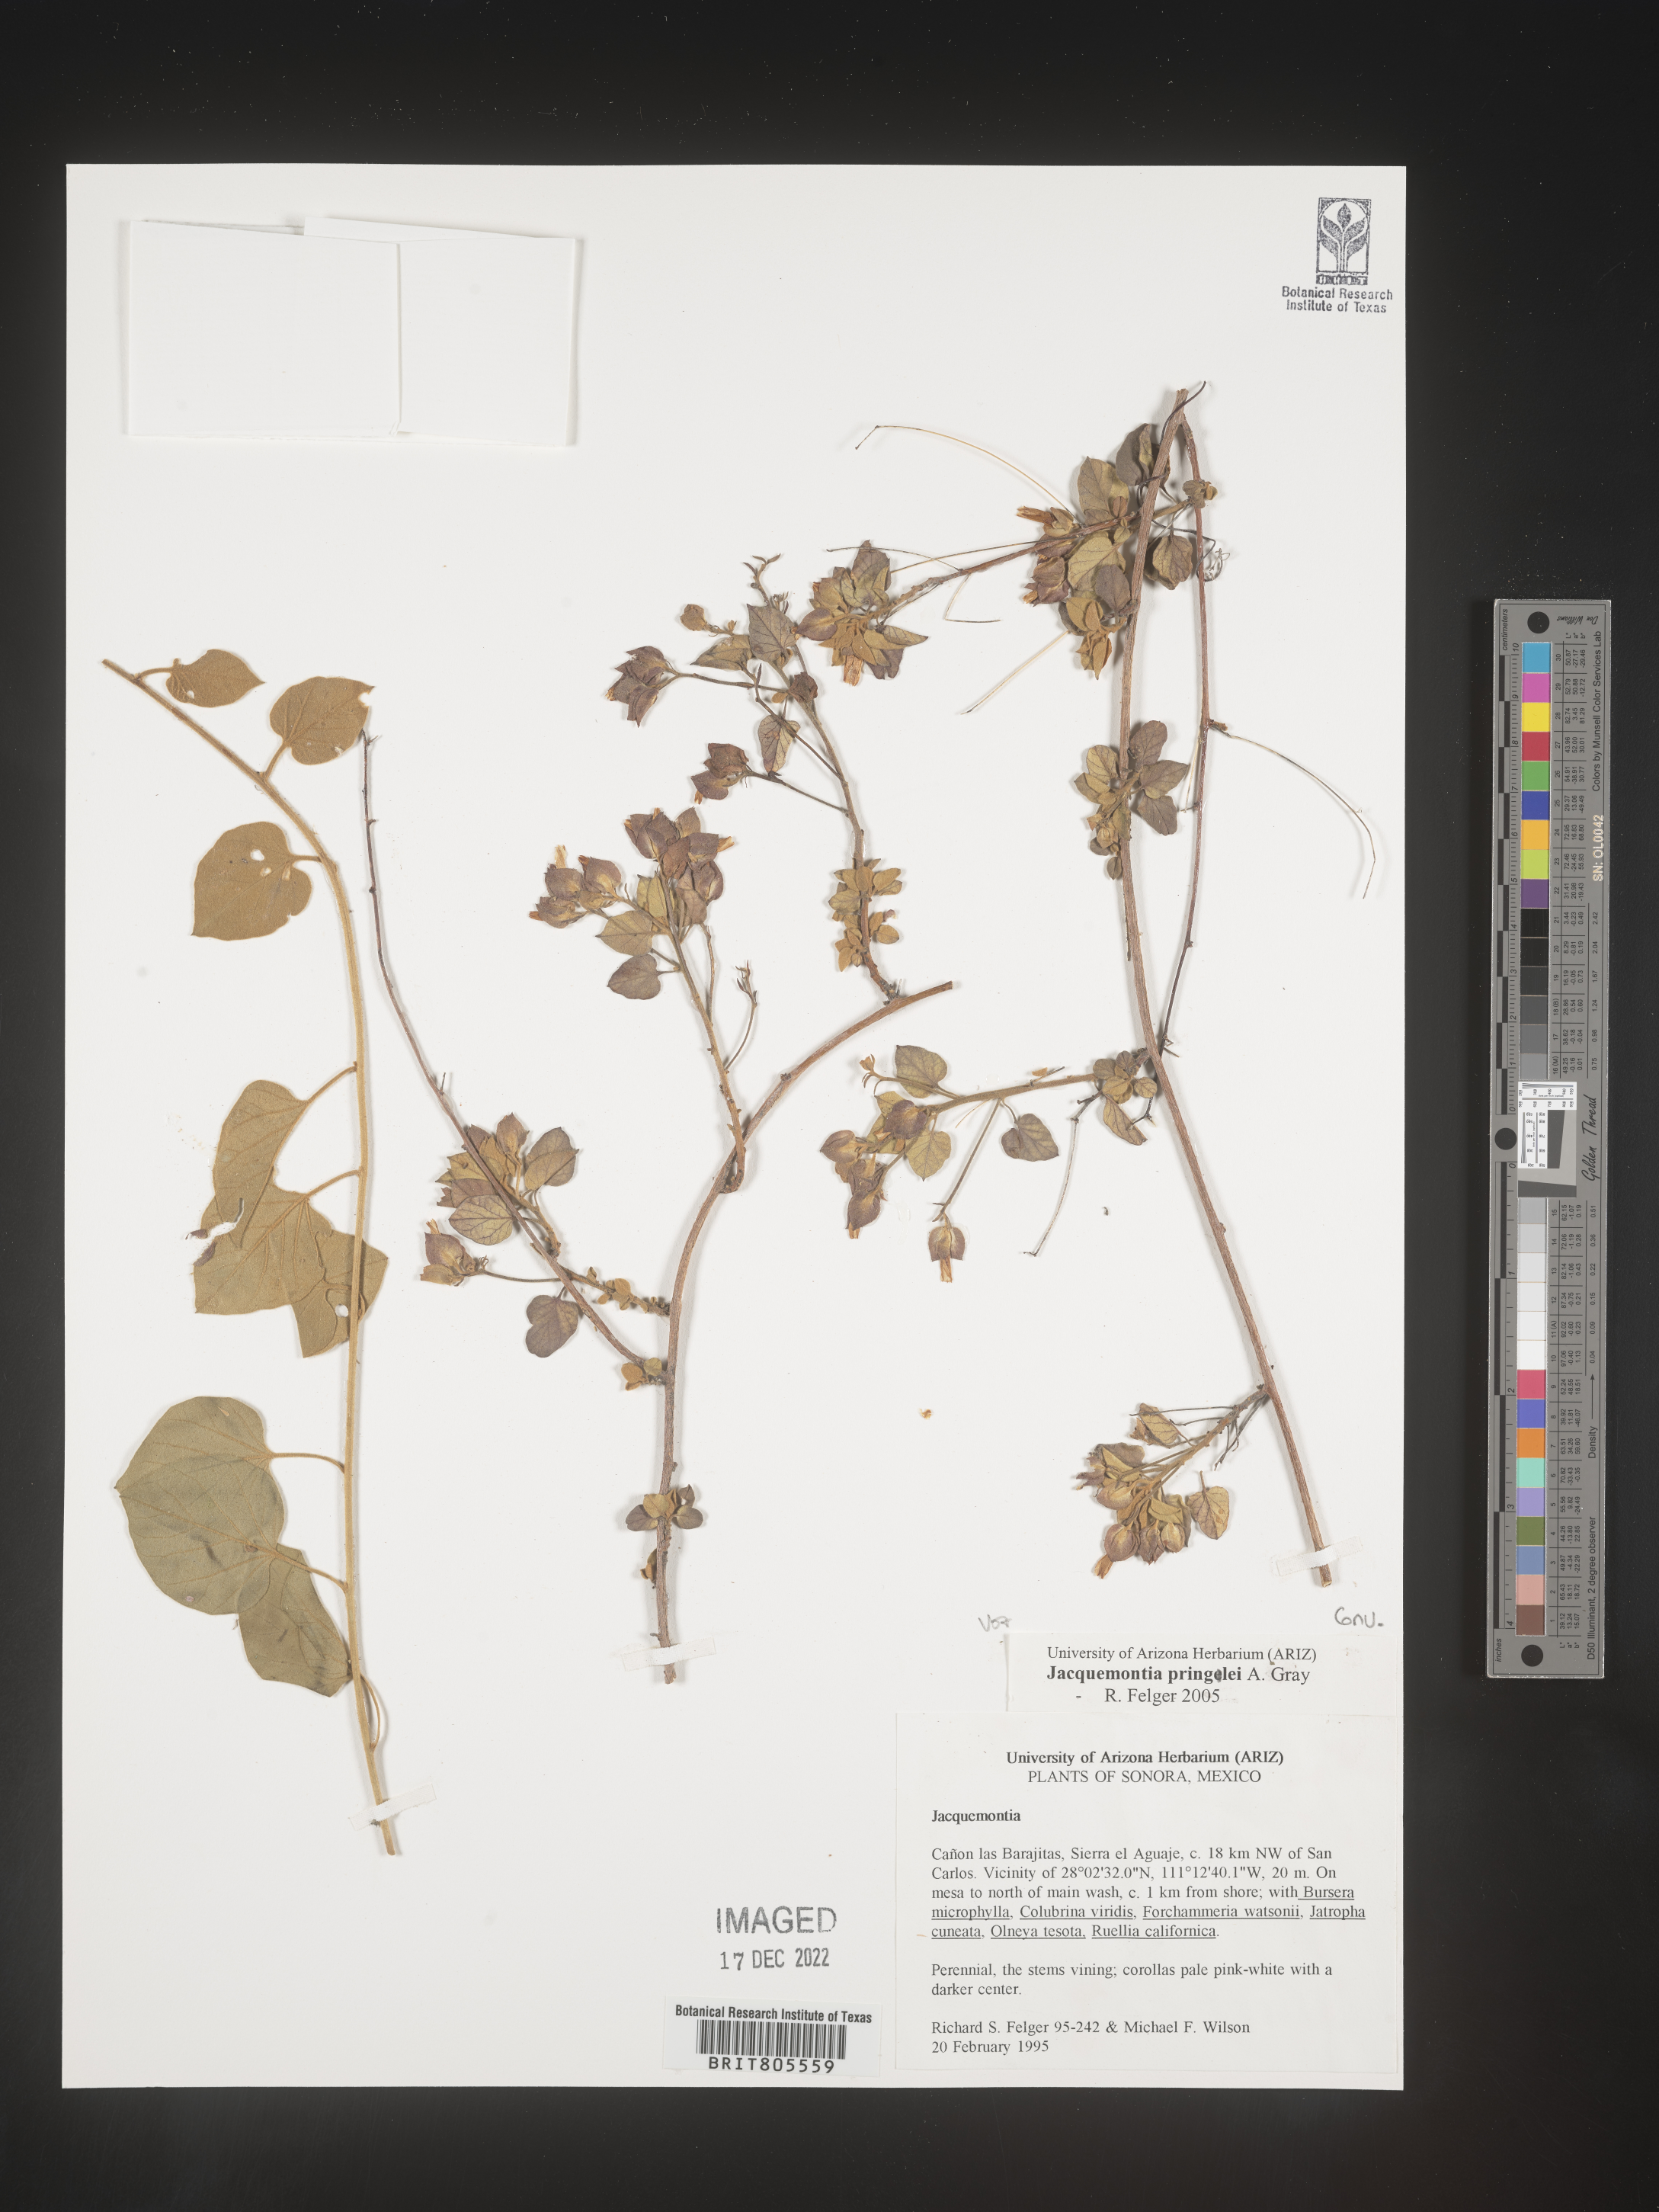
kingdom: Plantae
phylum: Tracheophyta
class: Magnoliopsida
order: Solanales
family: Convolvulaceae
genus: Jacquemontia
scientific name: Jacquemontia
